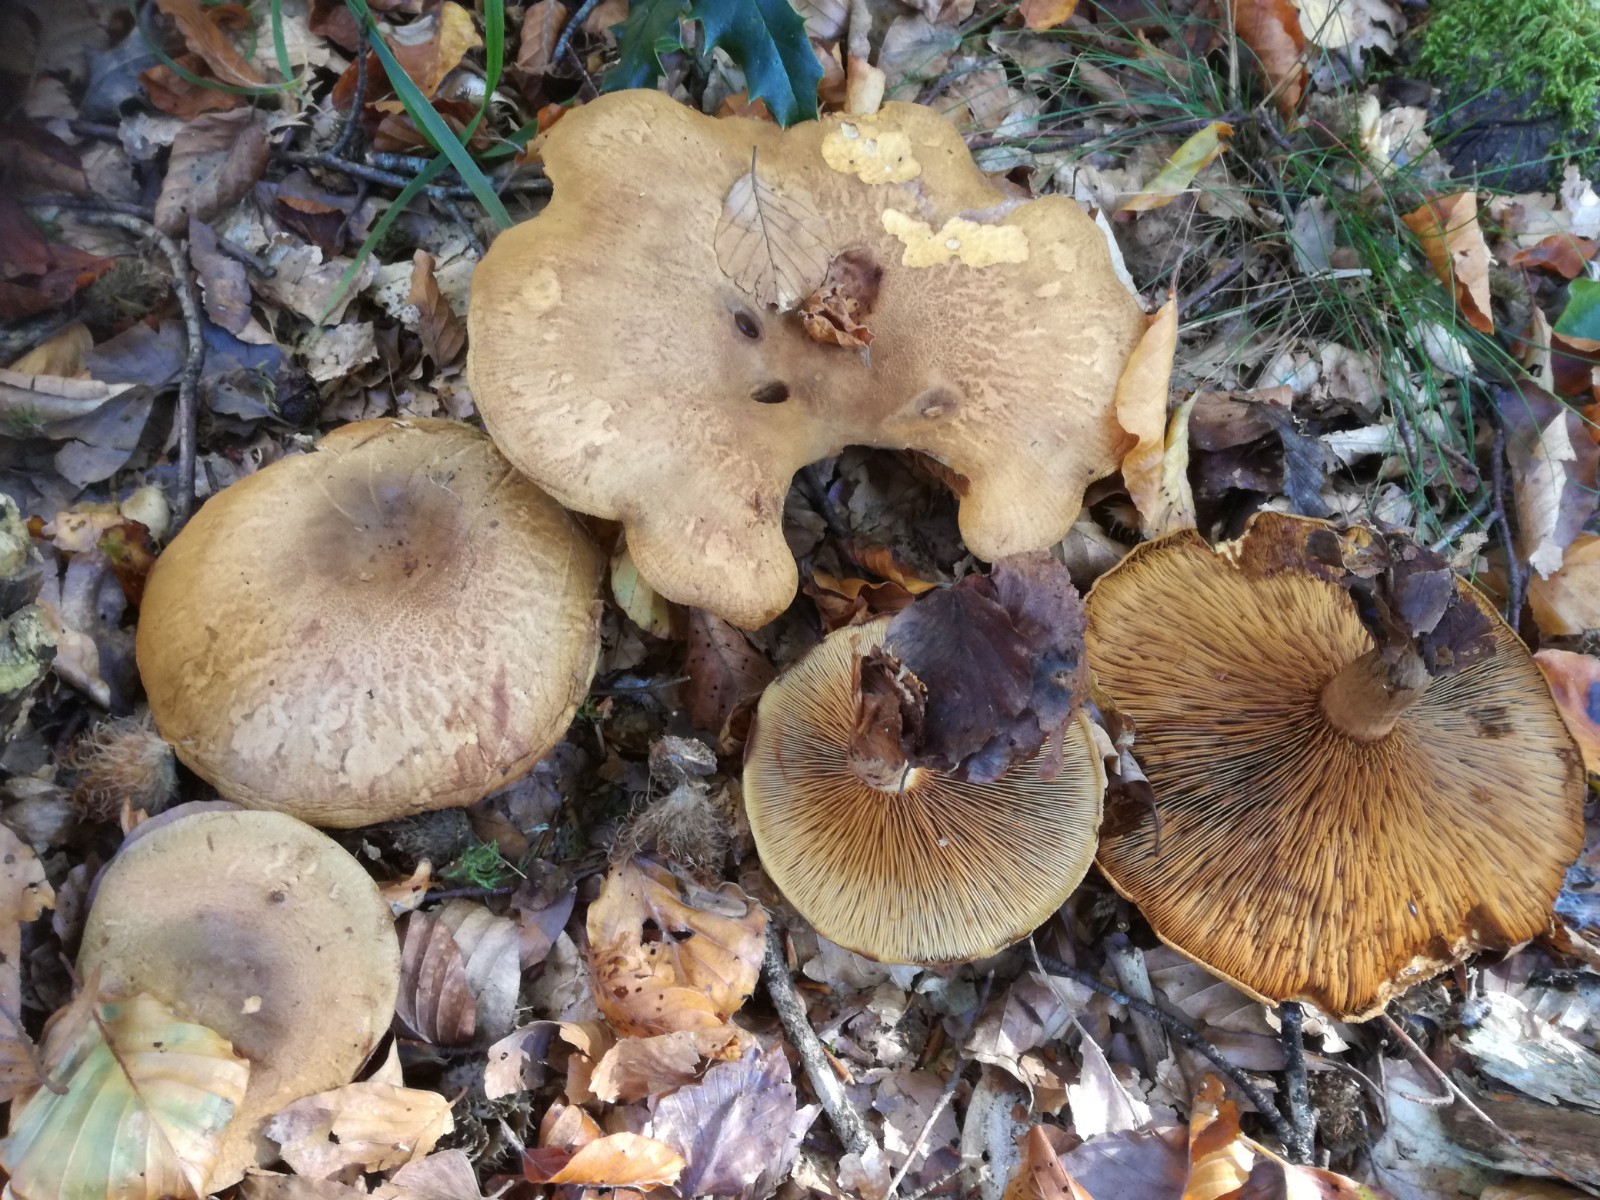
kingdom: Fungi
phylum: Basidiomycota
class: Agaricomycetes
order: Boletales
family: Paxillaceae
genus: Paxillus
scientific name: Paxillus involutus
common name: almindelig netbladhat
